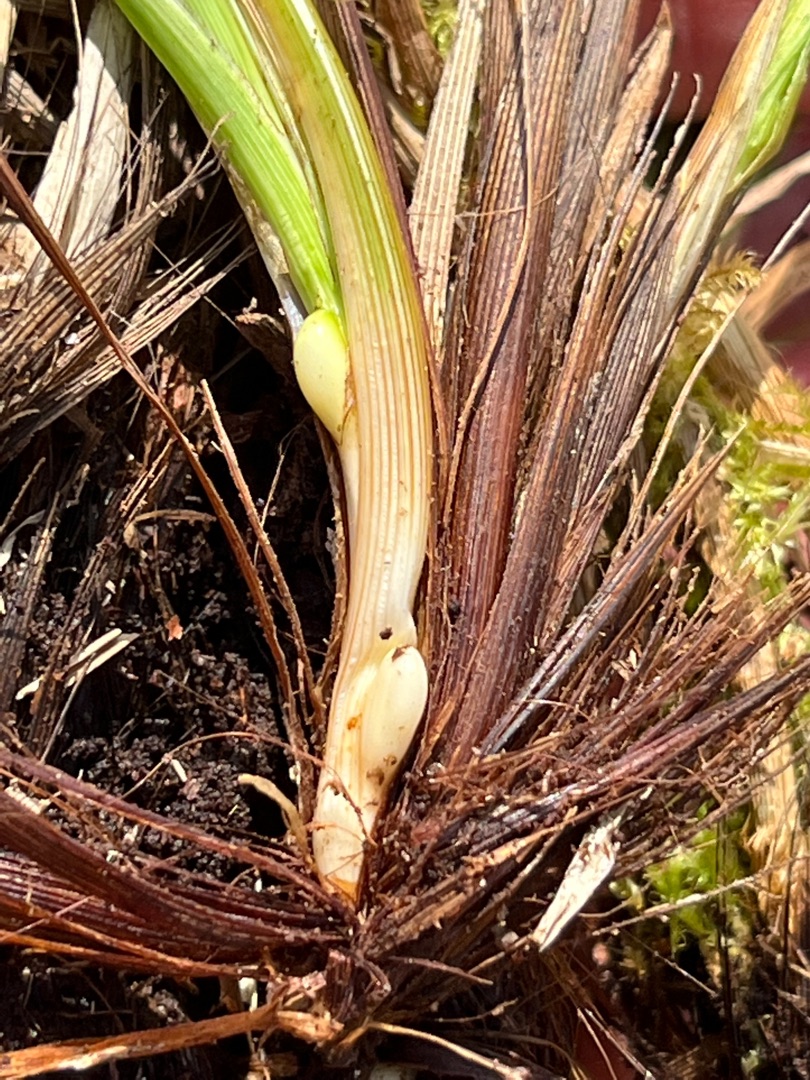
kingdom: Animalia
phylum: Arthropoda
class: Insecta
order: Diptera
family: Cecidomyiidae
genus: Planetella
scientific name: Planetella
